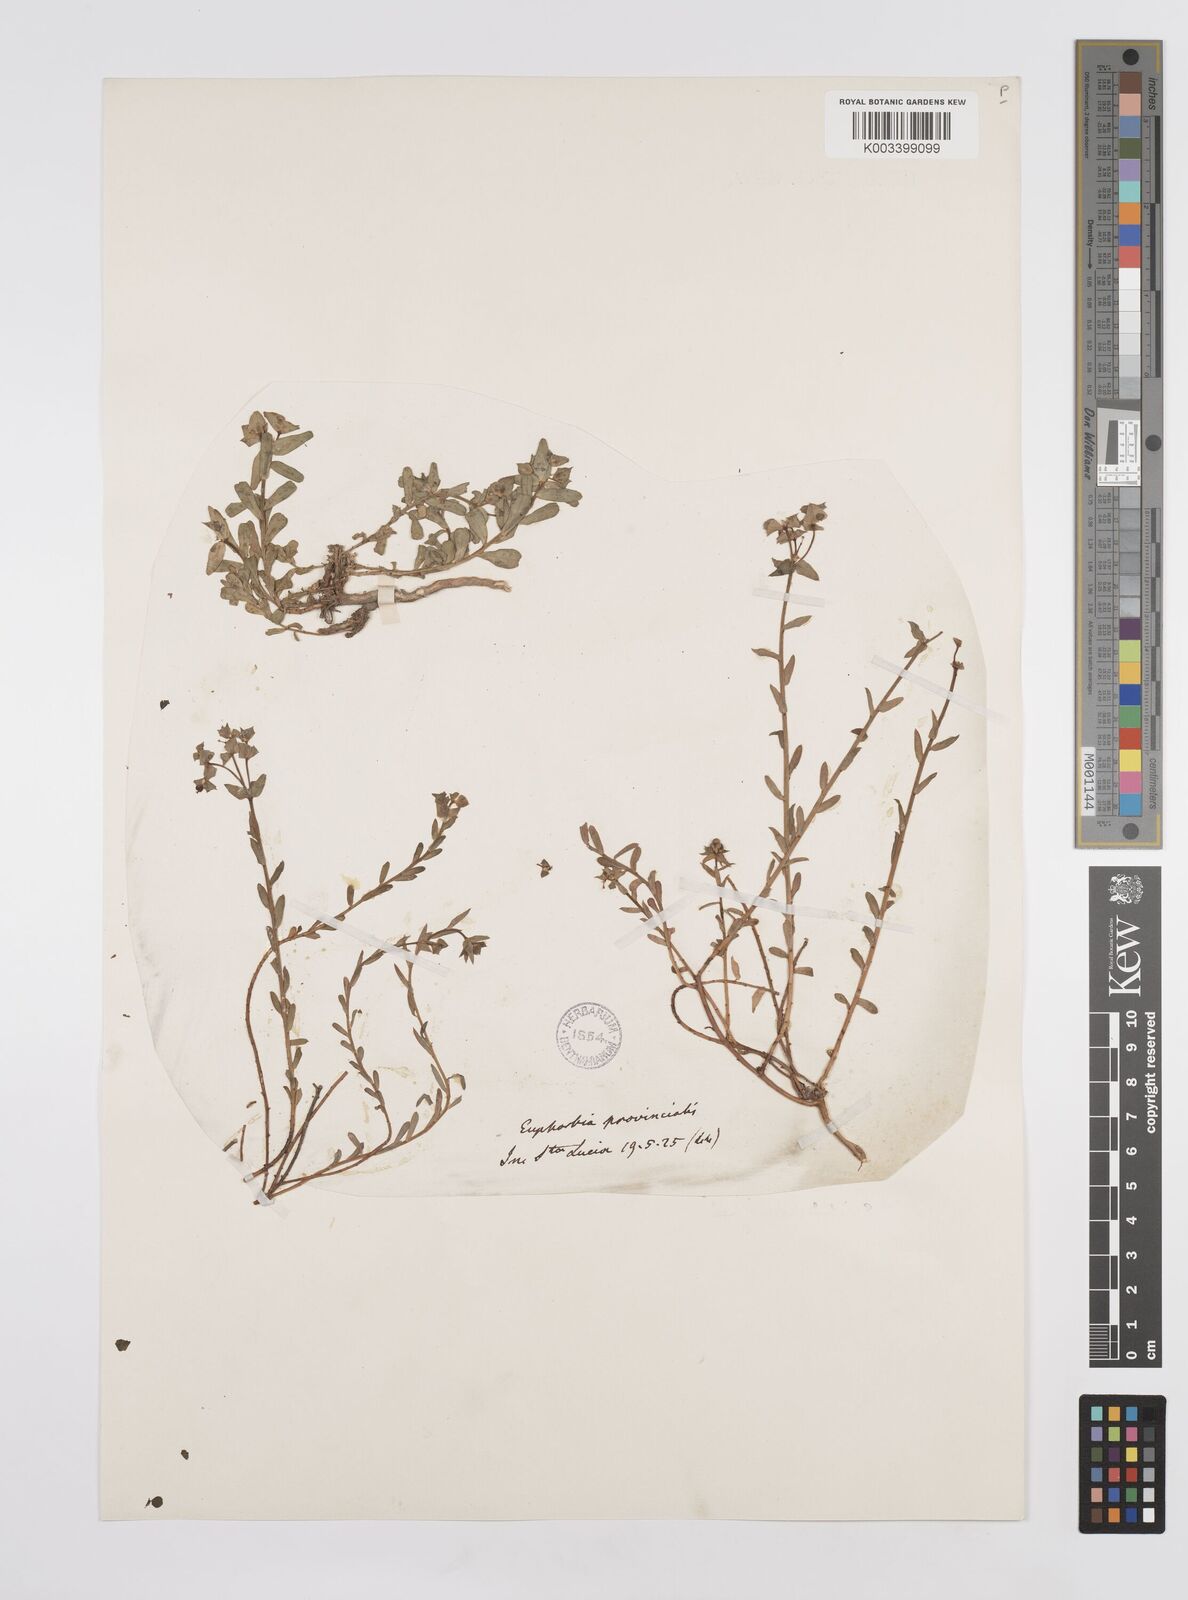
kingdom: Plantae
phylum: Tracheophyta
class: Magnoliopsida
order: Malpighiales
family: Euphorbiaceae
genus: Euphorbia
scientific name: Euphorbia
